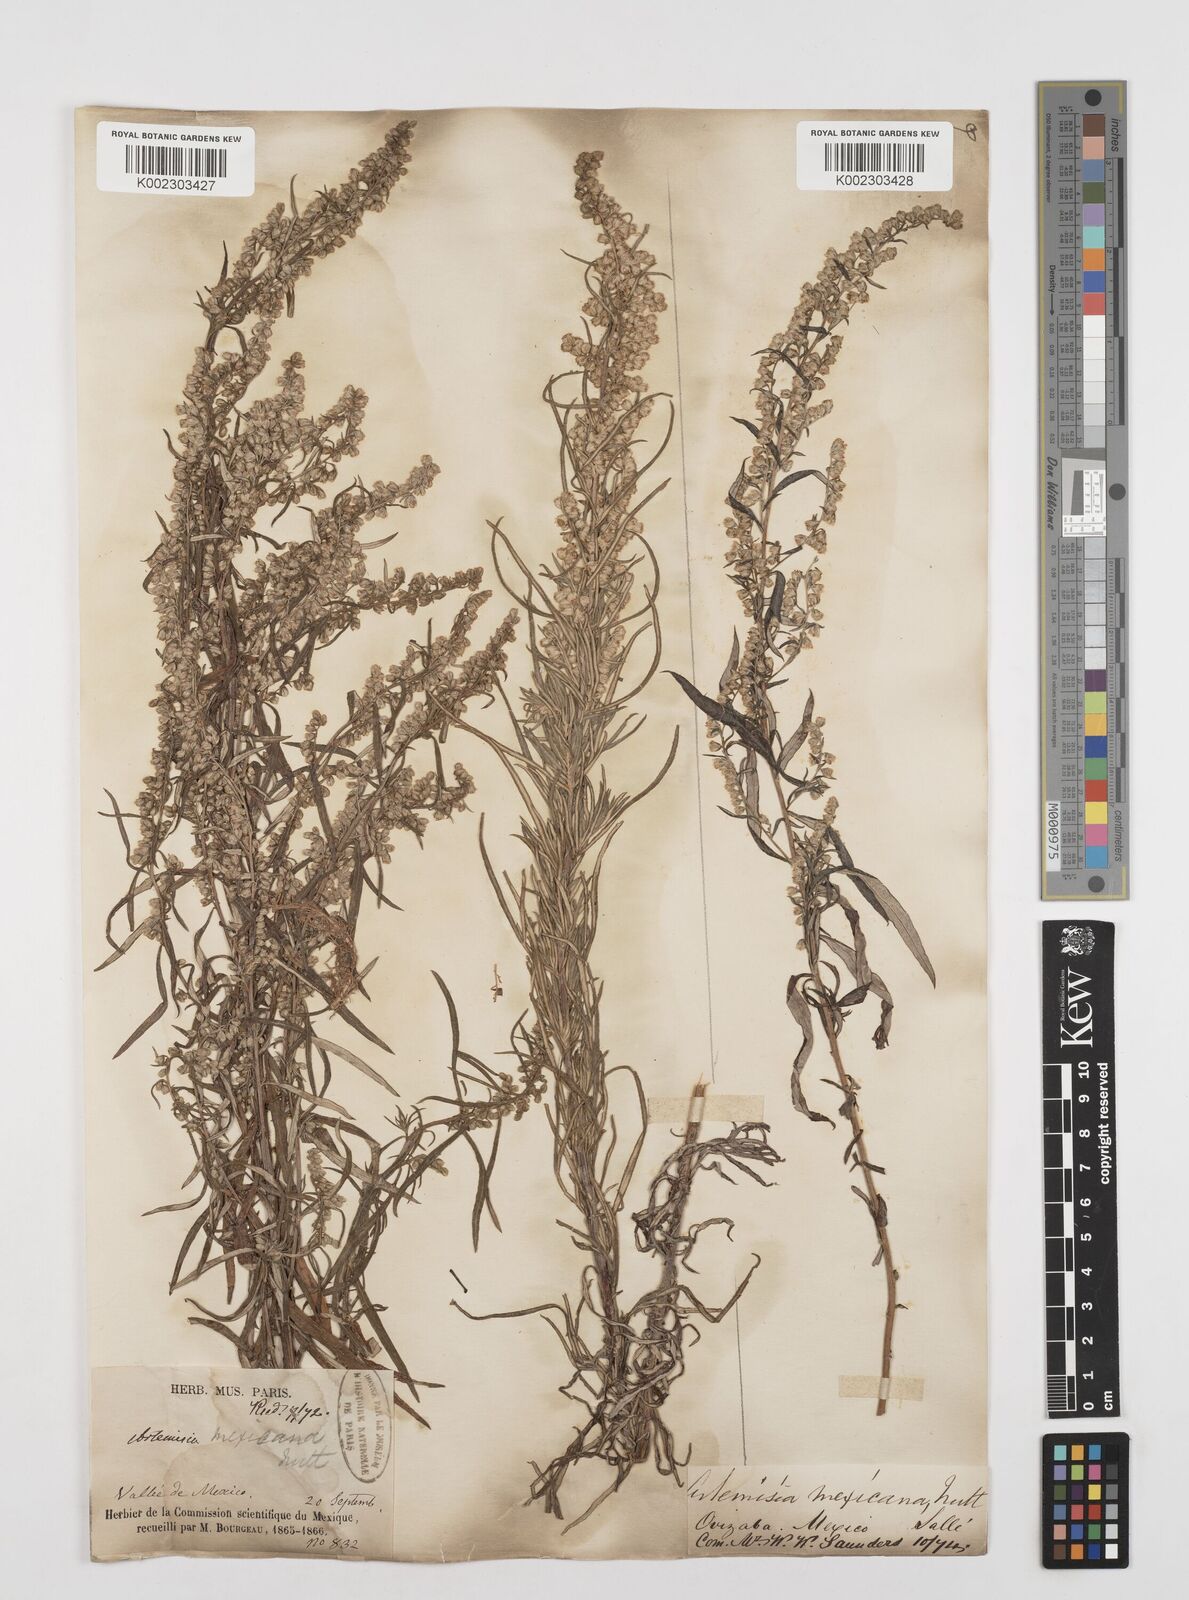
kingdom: Plantae
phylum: Tracheophyta
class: Magnoliopsida
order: Asterales
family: Asteraceae
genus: Artemisia
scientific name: Artemisia ludoviciana
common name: Western mugwort
